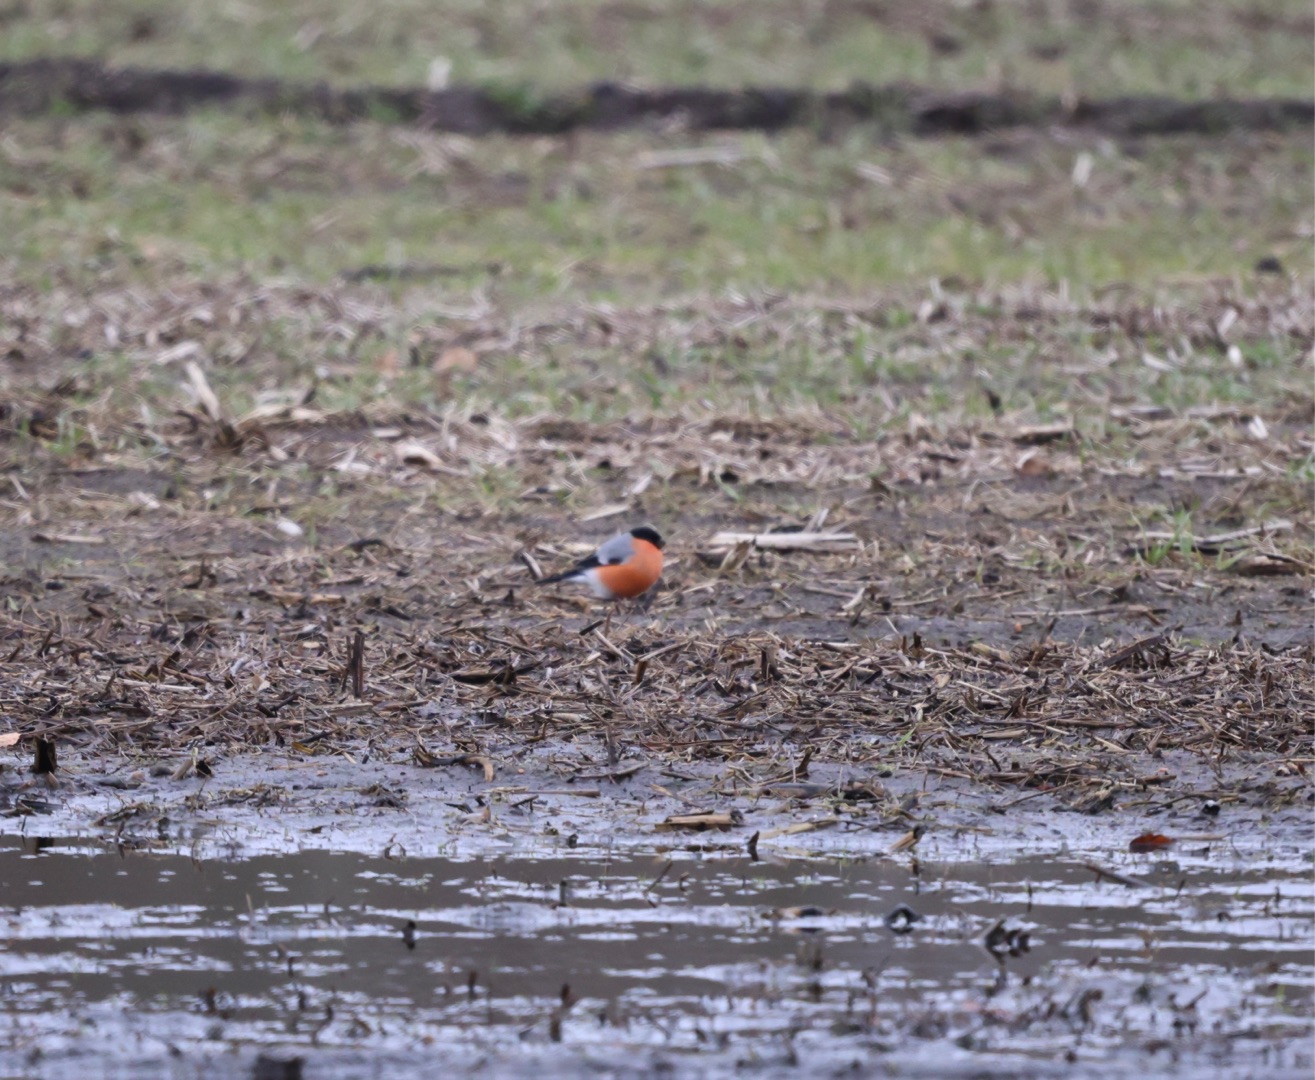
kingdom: Animalia
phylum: Chordata
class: Aves
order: Passeriformes
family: Fringillidae
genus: Pyrrhula
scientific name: Pyrrhula pyrrhula
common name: Dompap
